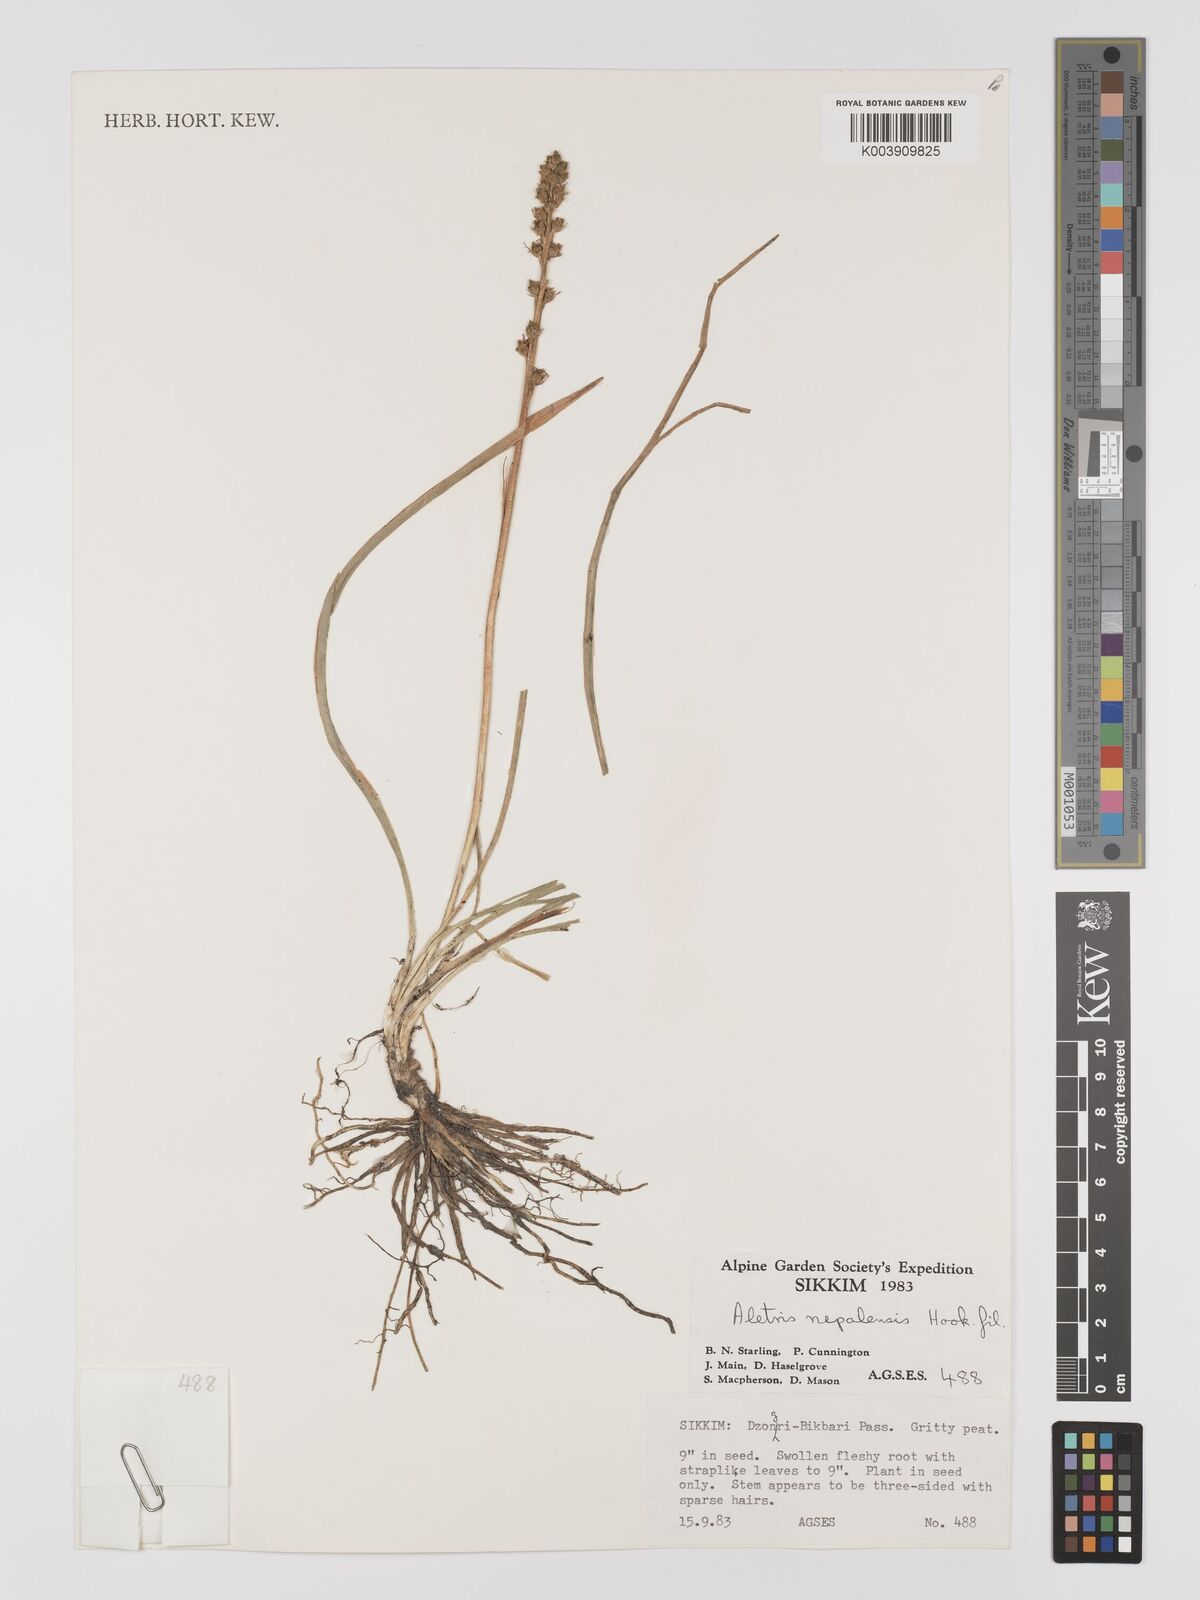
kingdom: Plantae
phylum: Tracheophyta
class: Liliopsida
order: Dioscoreales
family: Nartheciaceae
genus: Aletris
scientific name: Aletris pauciflora
